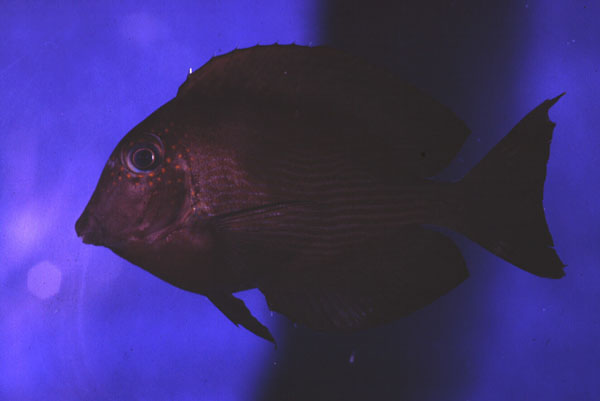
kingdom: Animalia
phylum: Chordata
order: Perciformes
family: Acanthuridae
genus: Ctenochaetus
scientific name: Ctenochaetus striatus
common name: Bristle-toothed surgeonfish
